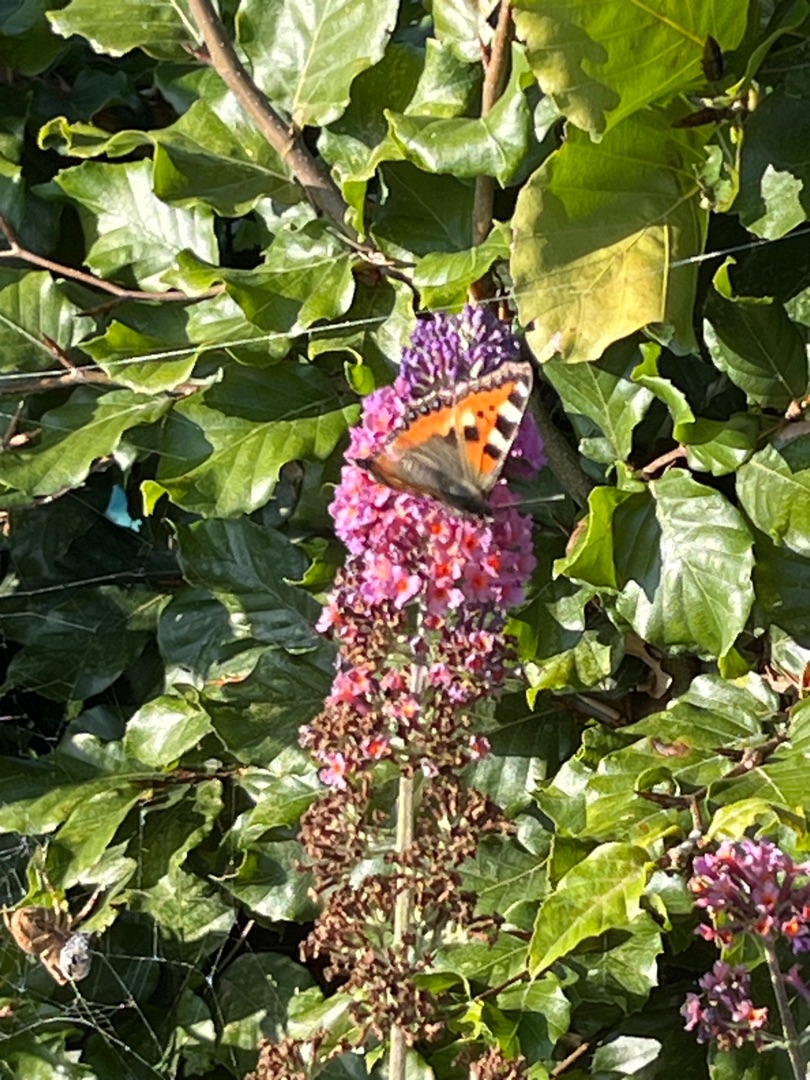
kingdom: Animalia
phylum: Arthropoda
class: Insecta
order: Lepidoptera
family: Nymphalidae
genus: Aglais
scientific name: Aglais urticae
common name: Nældens takvinge
